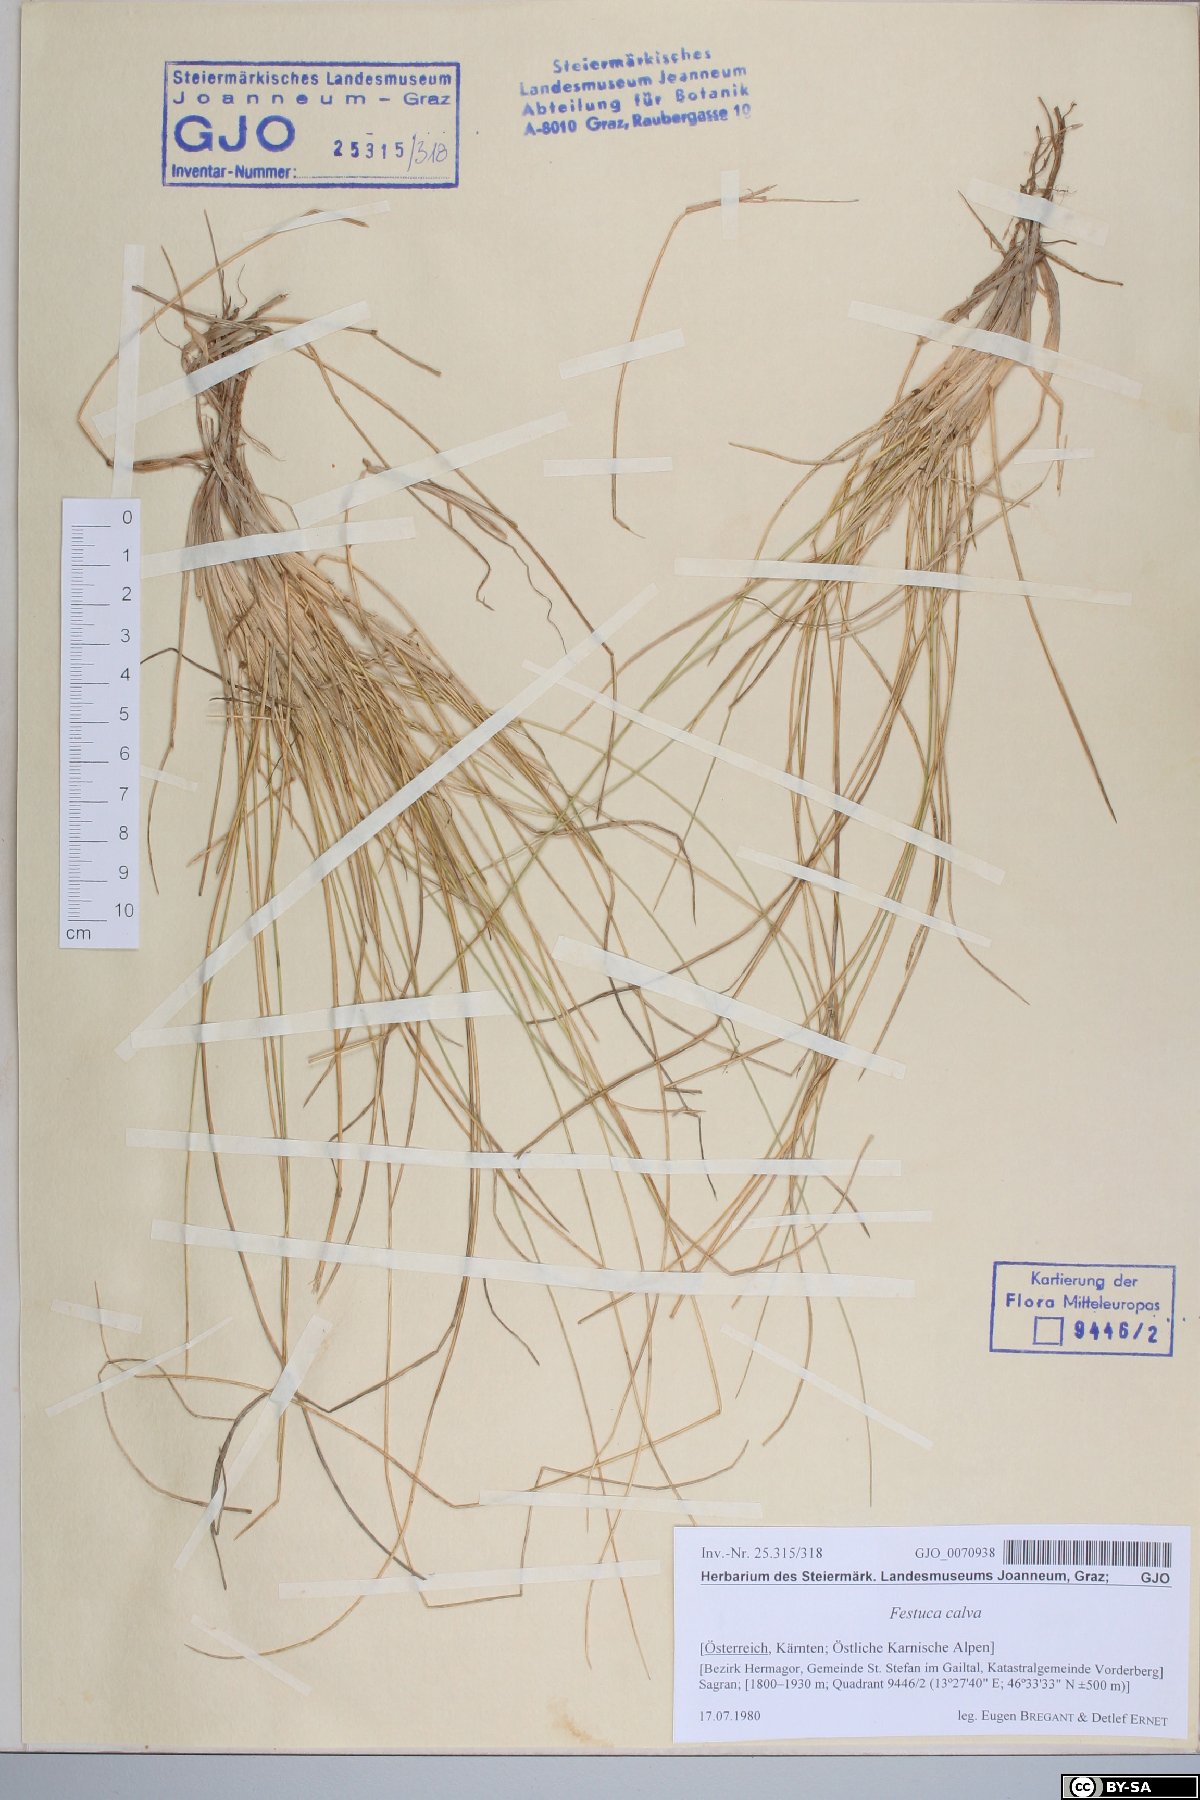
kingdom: Plantae
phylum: Tracheophyta
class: Liliopsida
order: Poales
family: Poaceae
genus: Festuca
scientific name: Festuca calva
